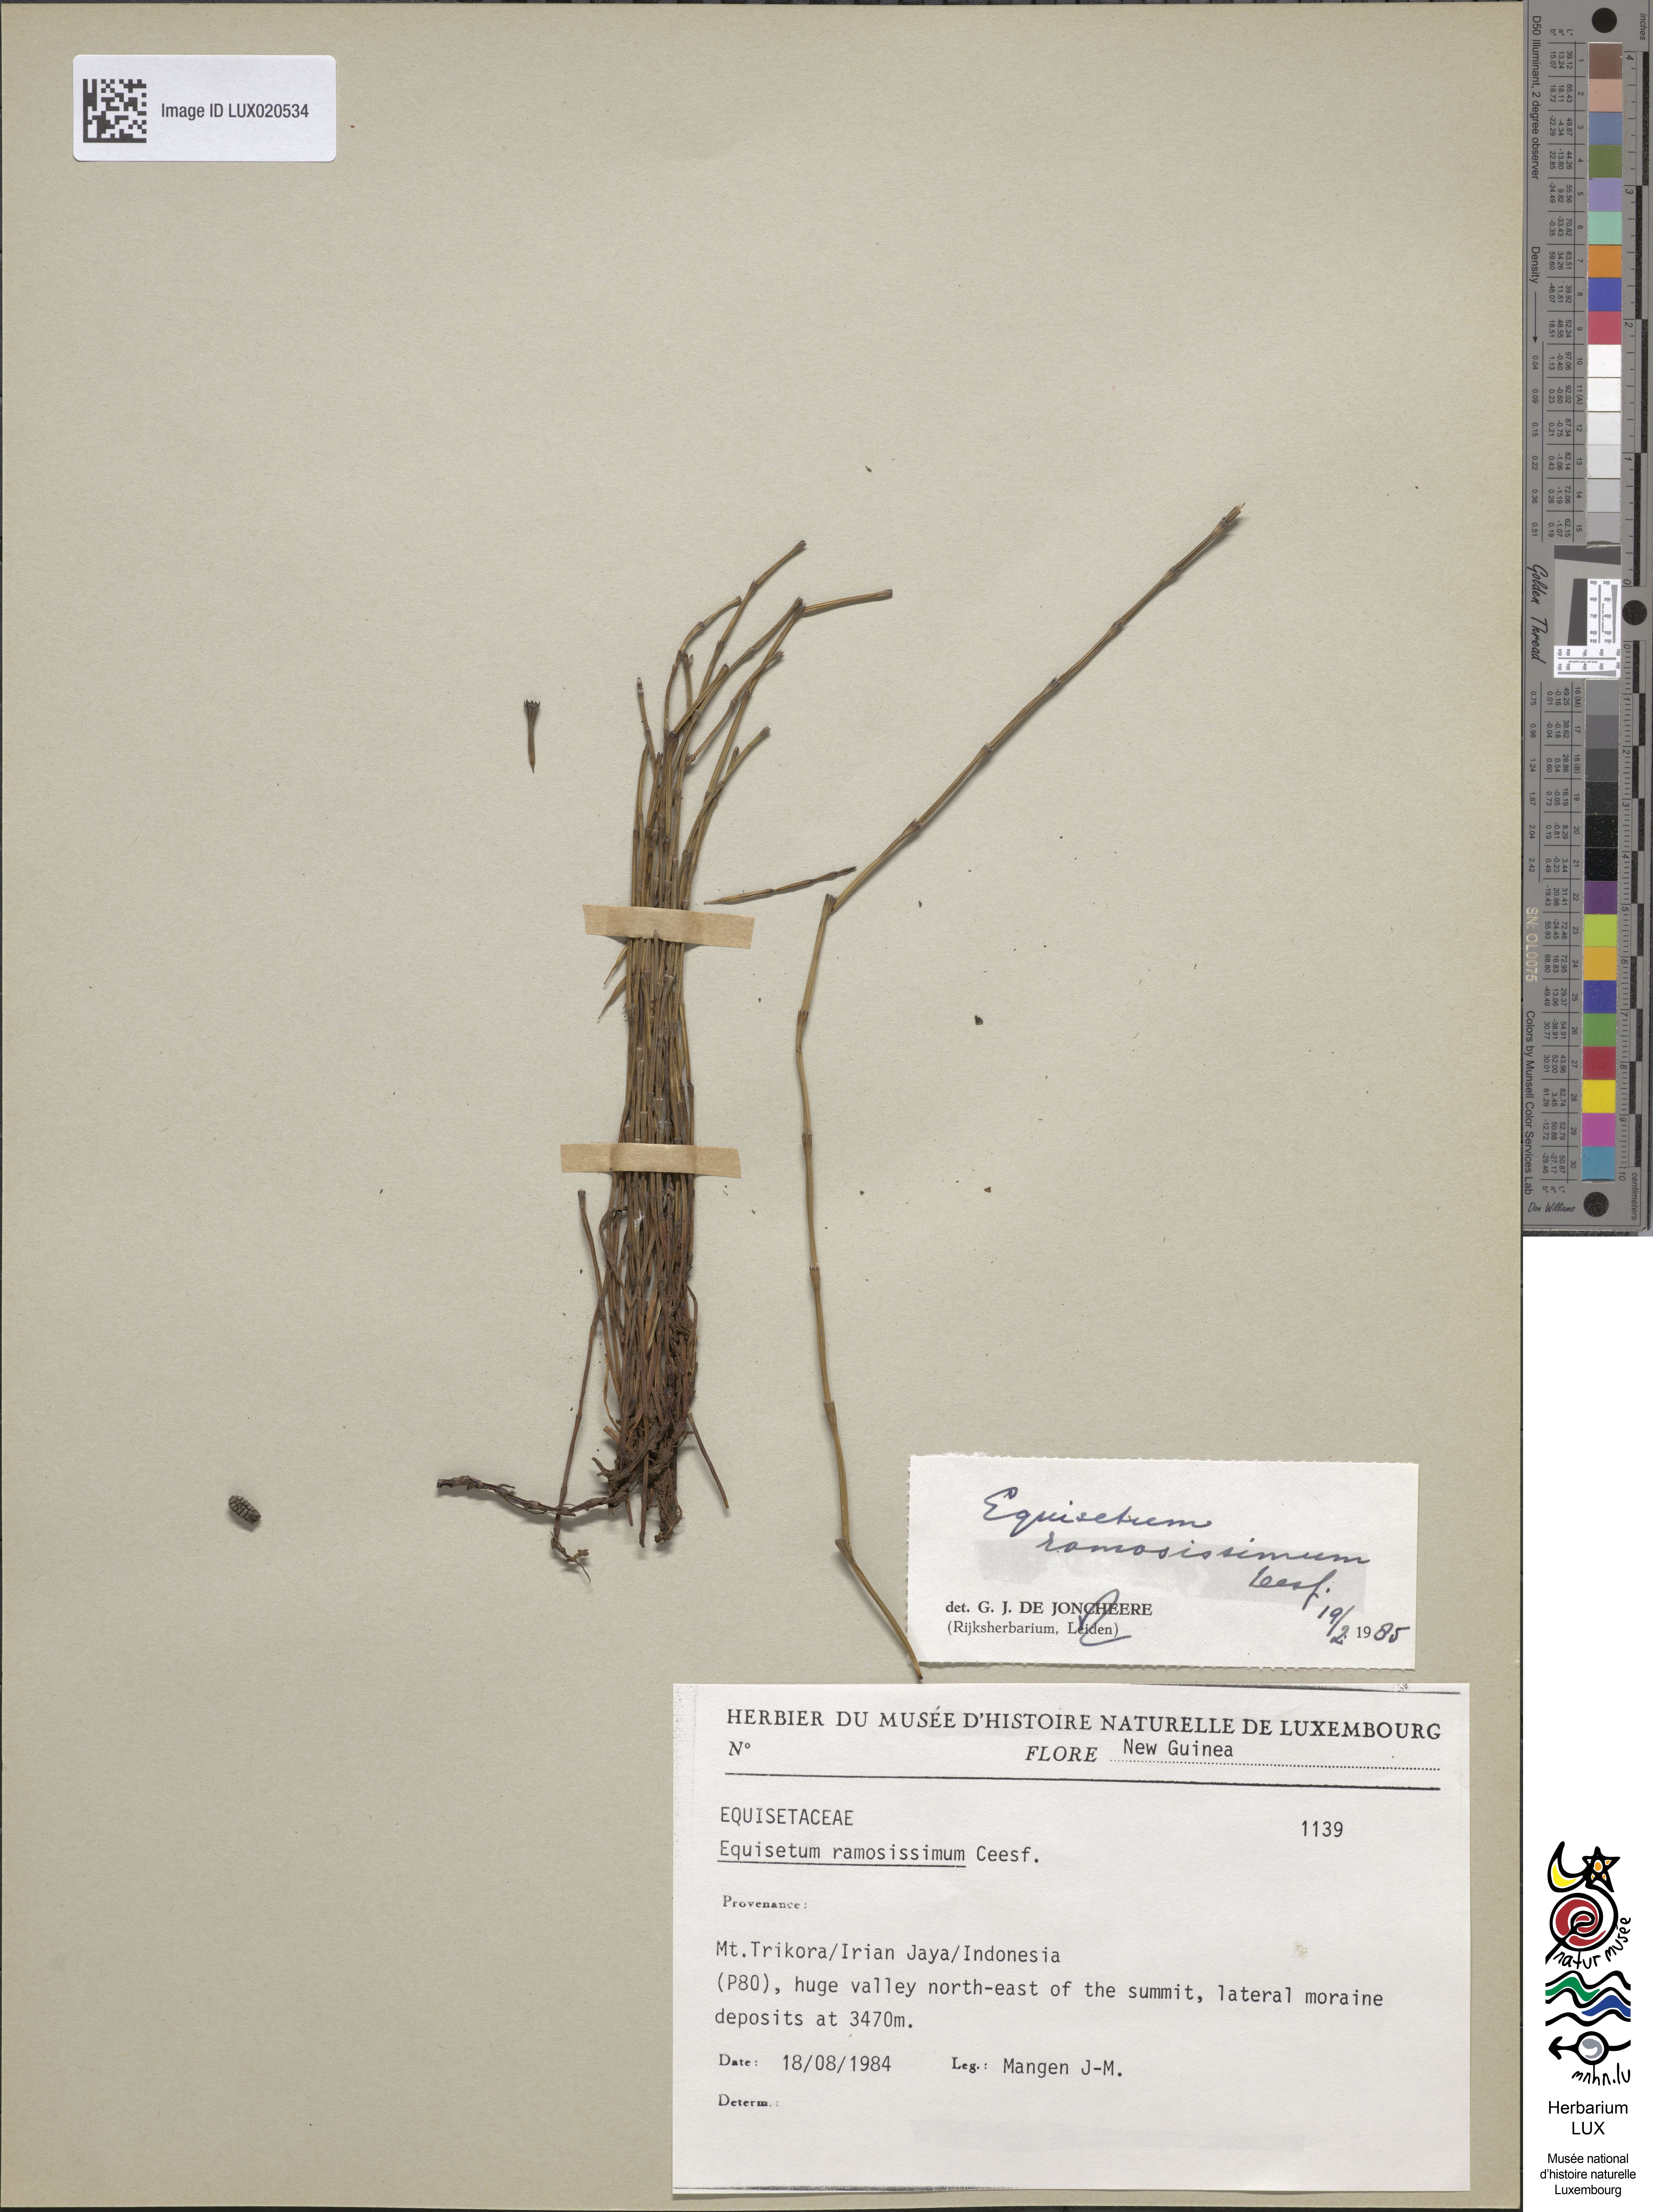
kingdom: Plantae
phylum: Tracheophyta
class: Polypodiopsida
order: Equisetales
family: Equisetaceae
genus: Equisetum
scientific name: Equisetum
